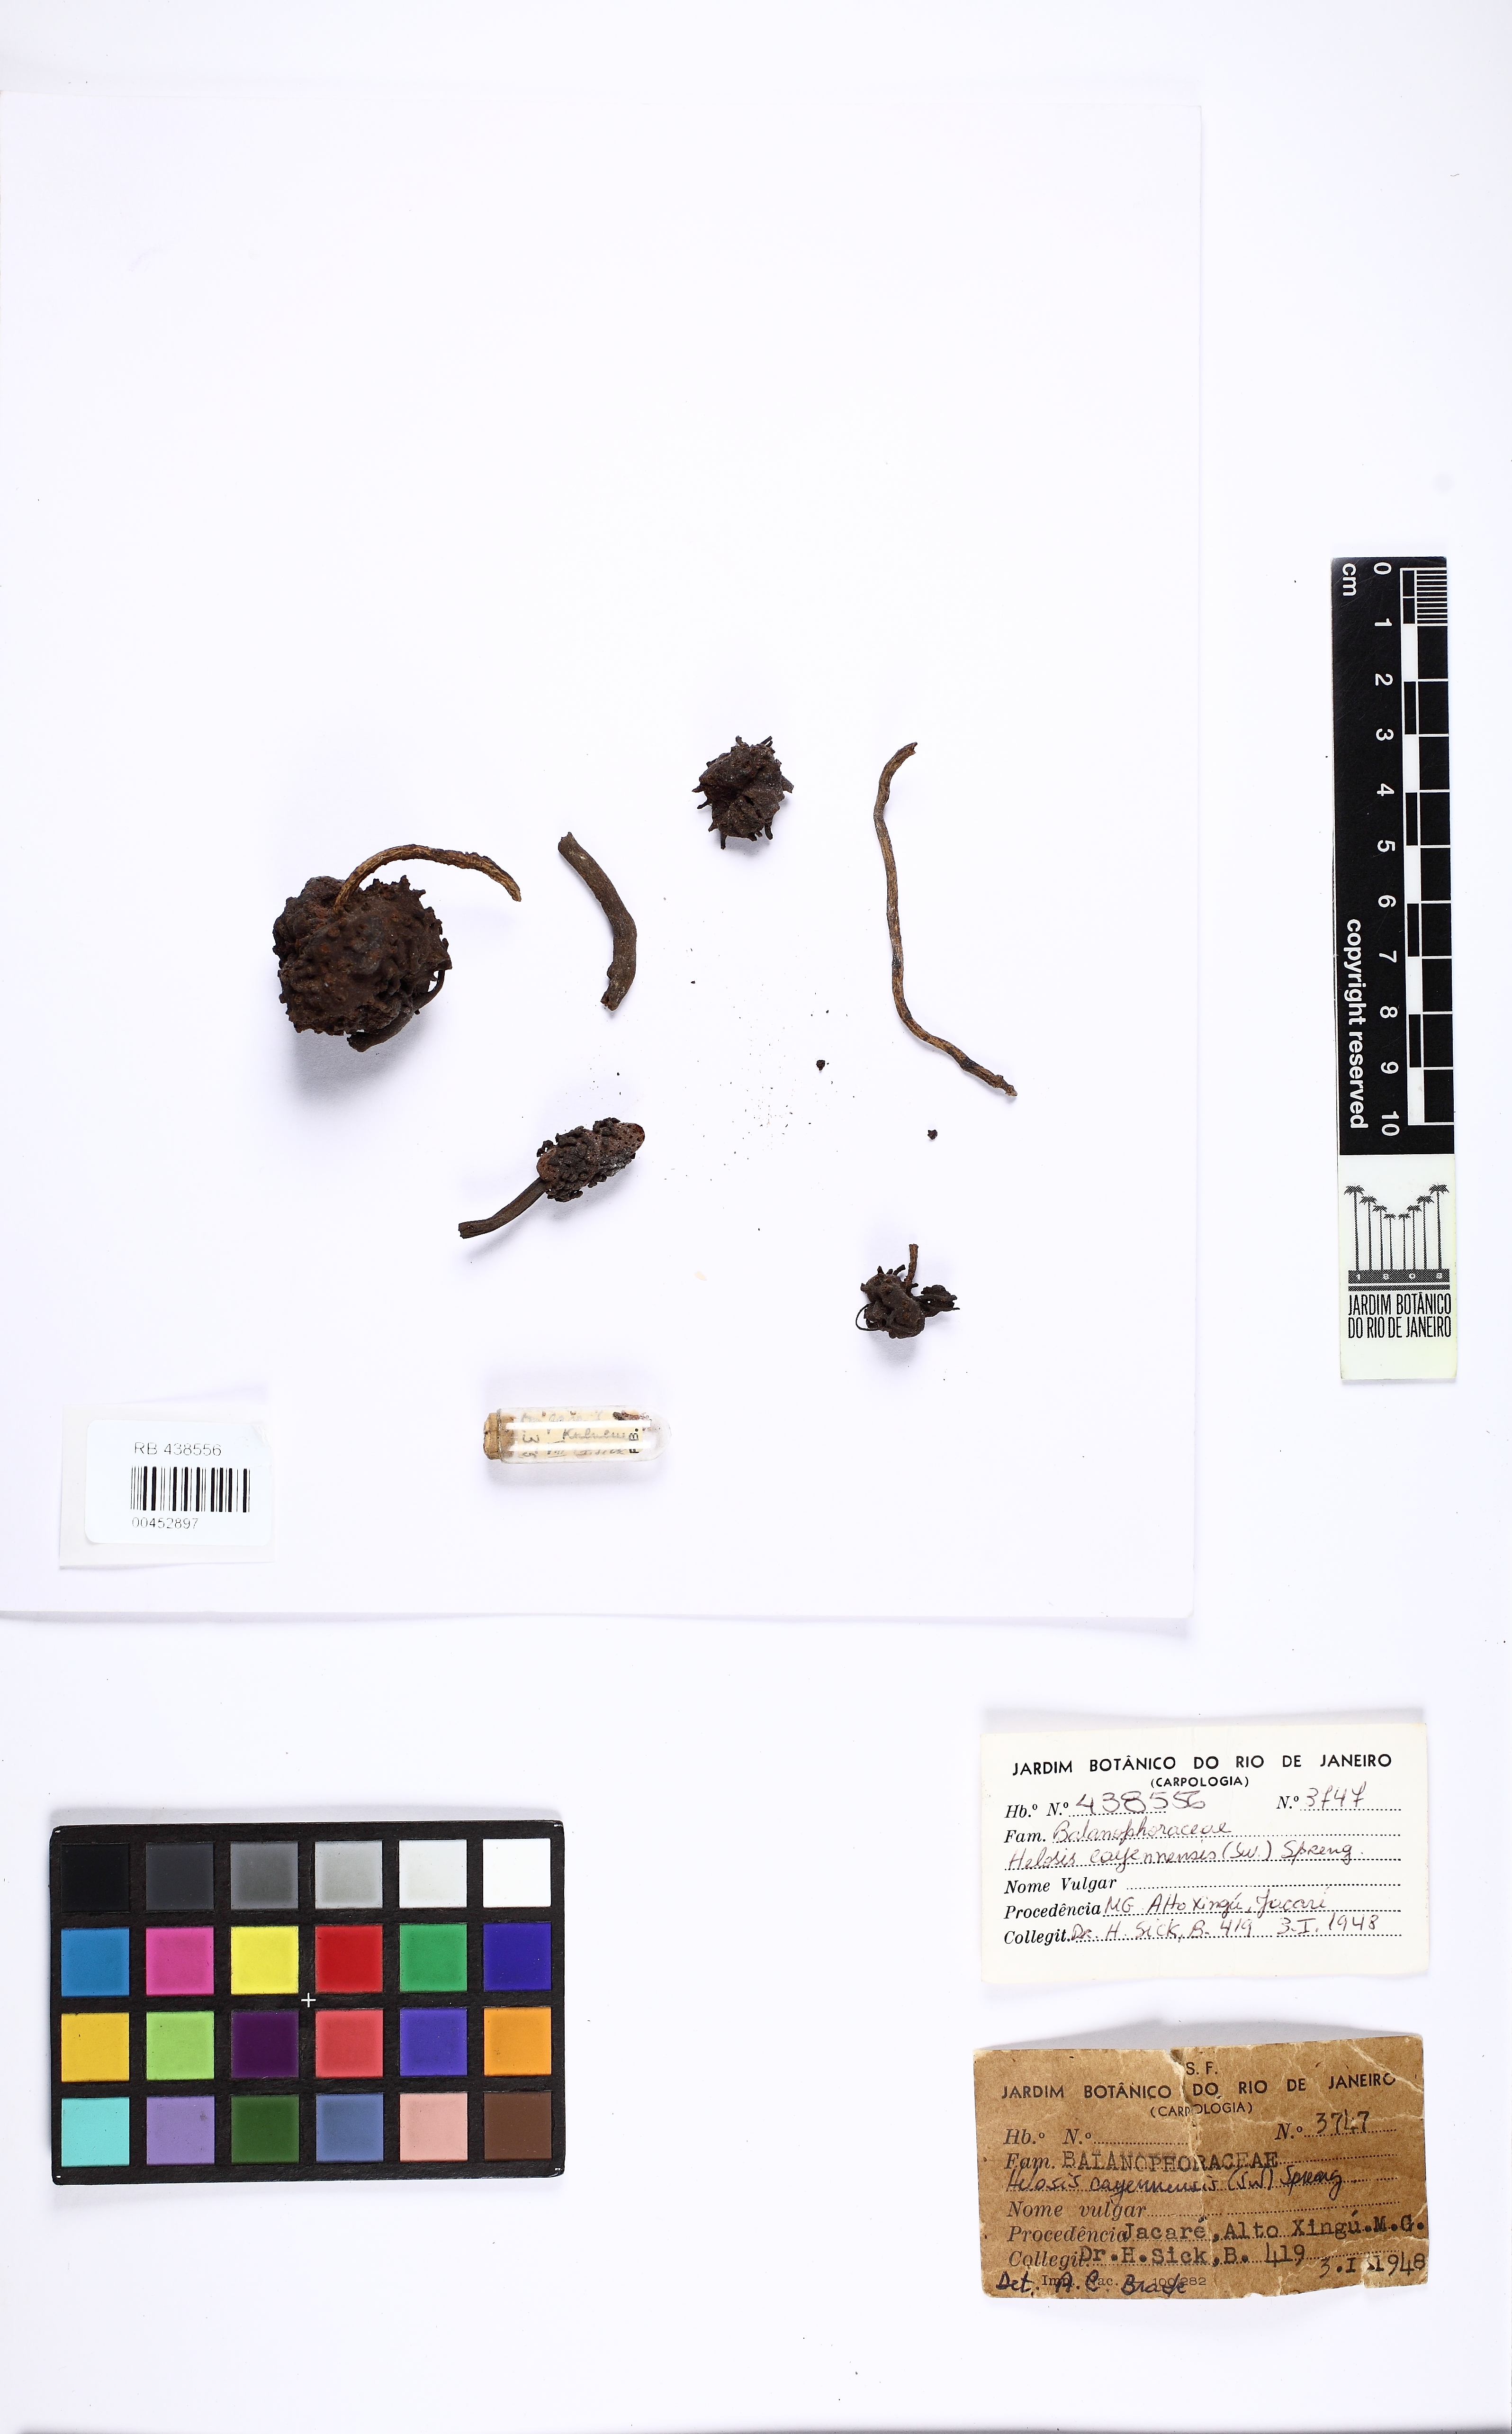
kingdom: Plantae
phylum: Tracheophyta
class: Magnoliopsida
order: Santalales
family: Balanophoraceae
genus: Helosis
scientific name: Helosis cayennensis
